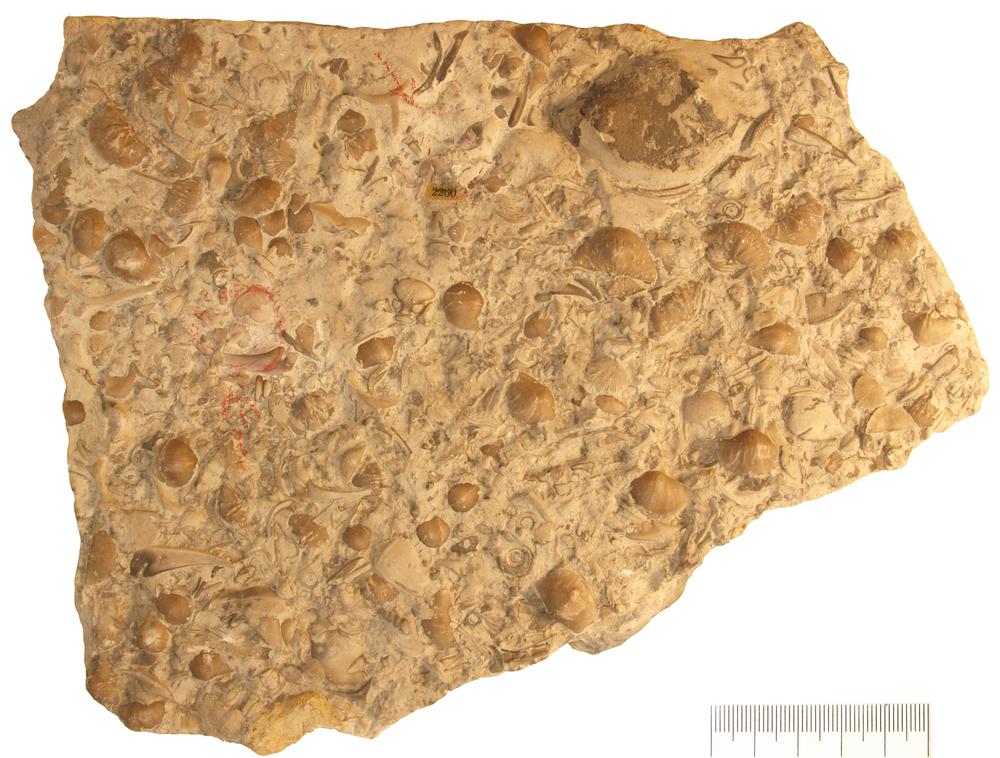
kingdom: Animalia
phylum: Arthropoda
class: Trilobita
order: Lichida
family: Lichidae
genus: Hemiarges
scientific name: Hemiarges wesenbergensis
